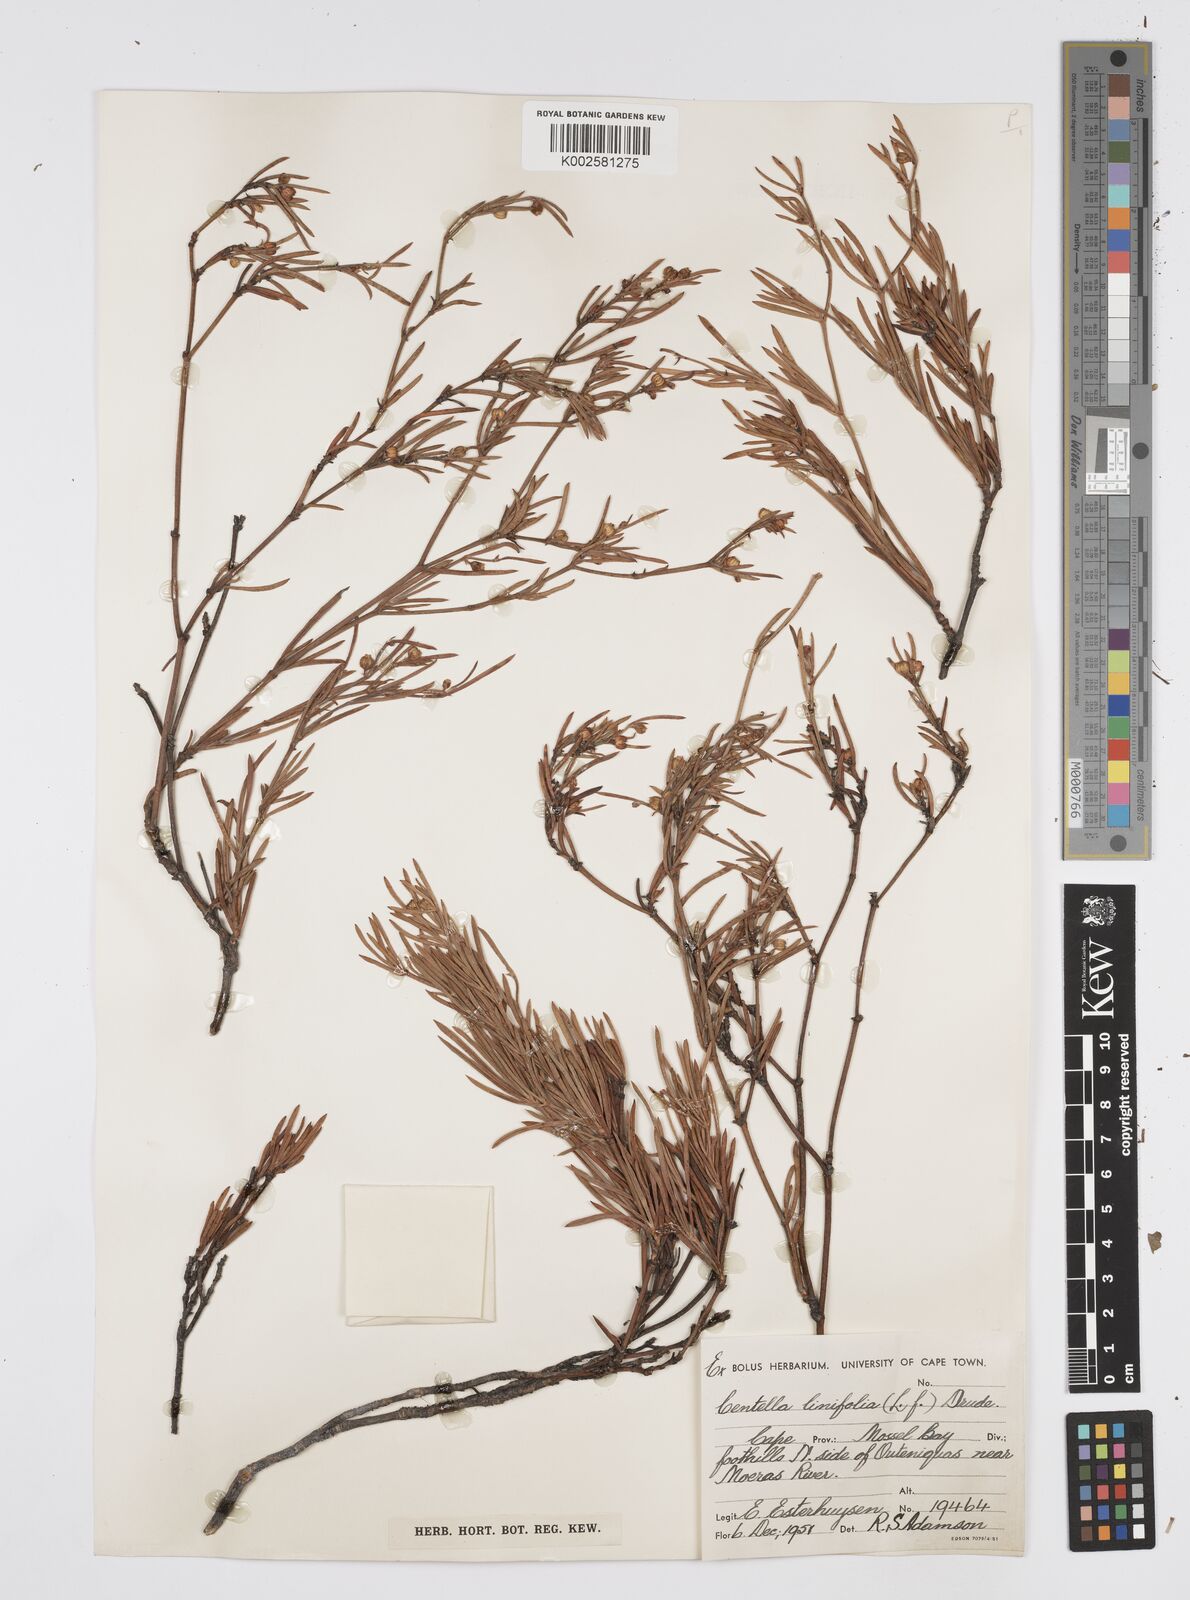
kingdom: Plantae
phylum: Tracheophyta
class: Magnoliopsida
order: Apiales
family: Apiaceae
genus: Centella
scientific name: Centella linifolia
